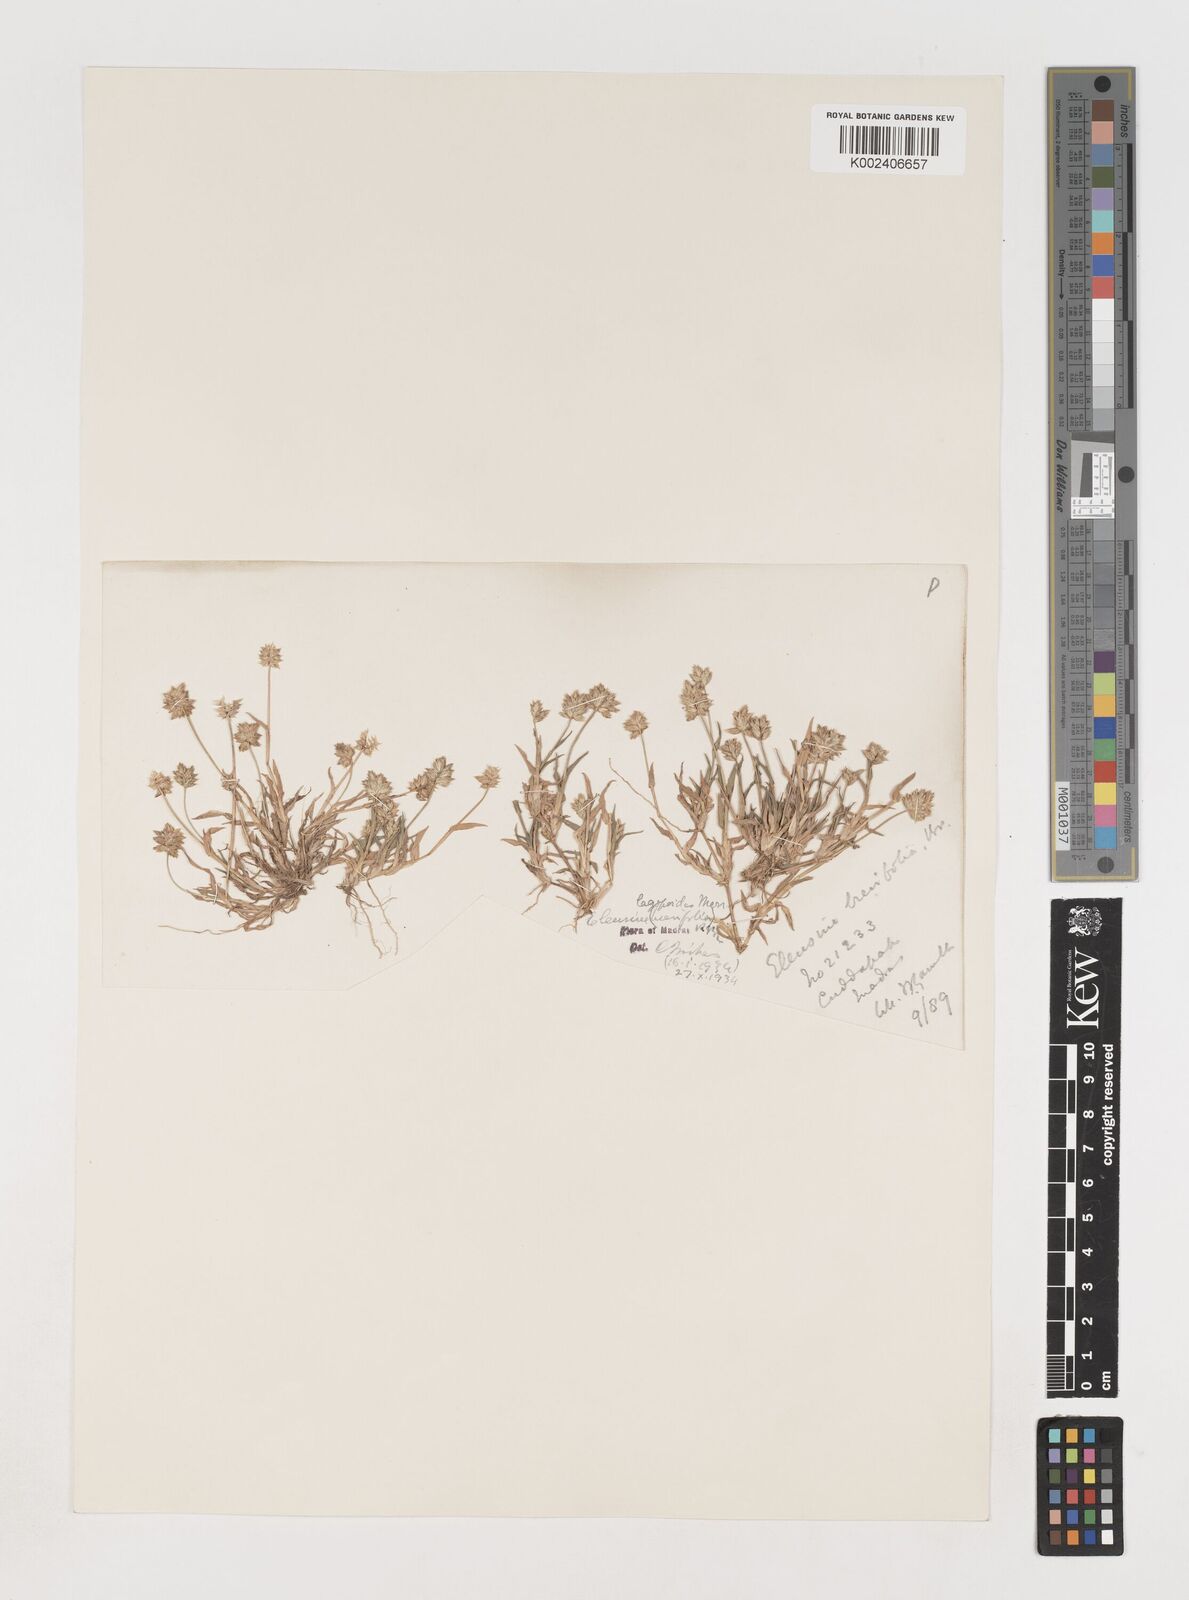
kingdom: Plantae
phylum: Tracheophyta
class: Liliopsida
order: Poales
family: Poaceae
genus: Coelachyrum
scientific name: Coelachyrum lagopoides
